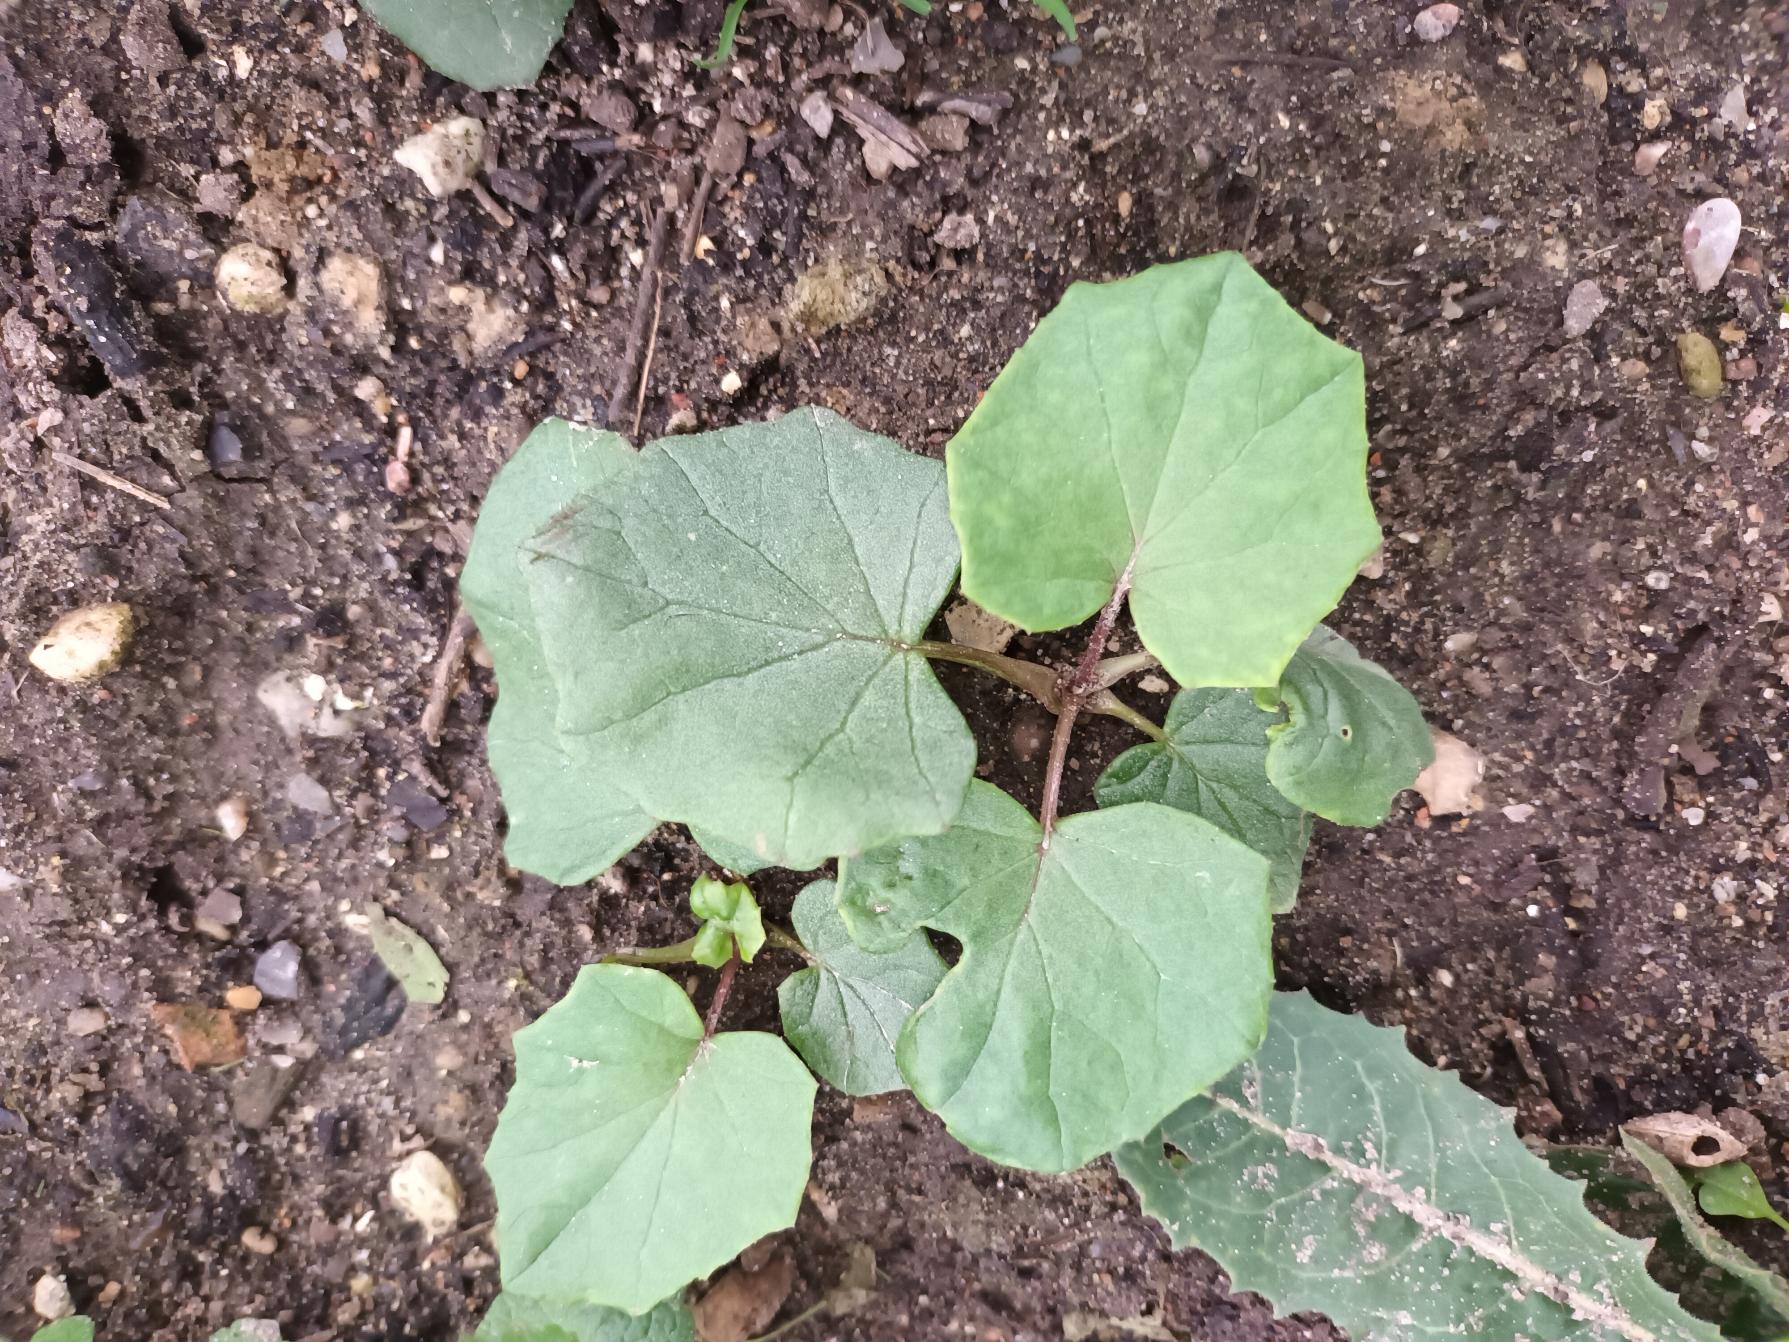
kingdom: Plantae
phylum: Tracheophyta
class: Magnoliopsida
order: Asterales
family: Asteraceae
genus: Tussilago
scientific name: Tussilago farfara
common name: Følfod
